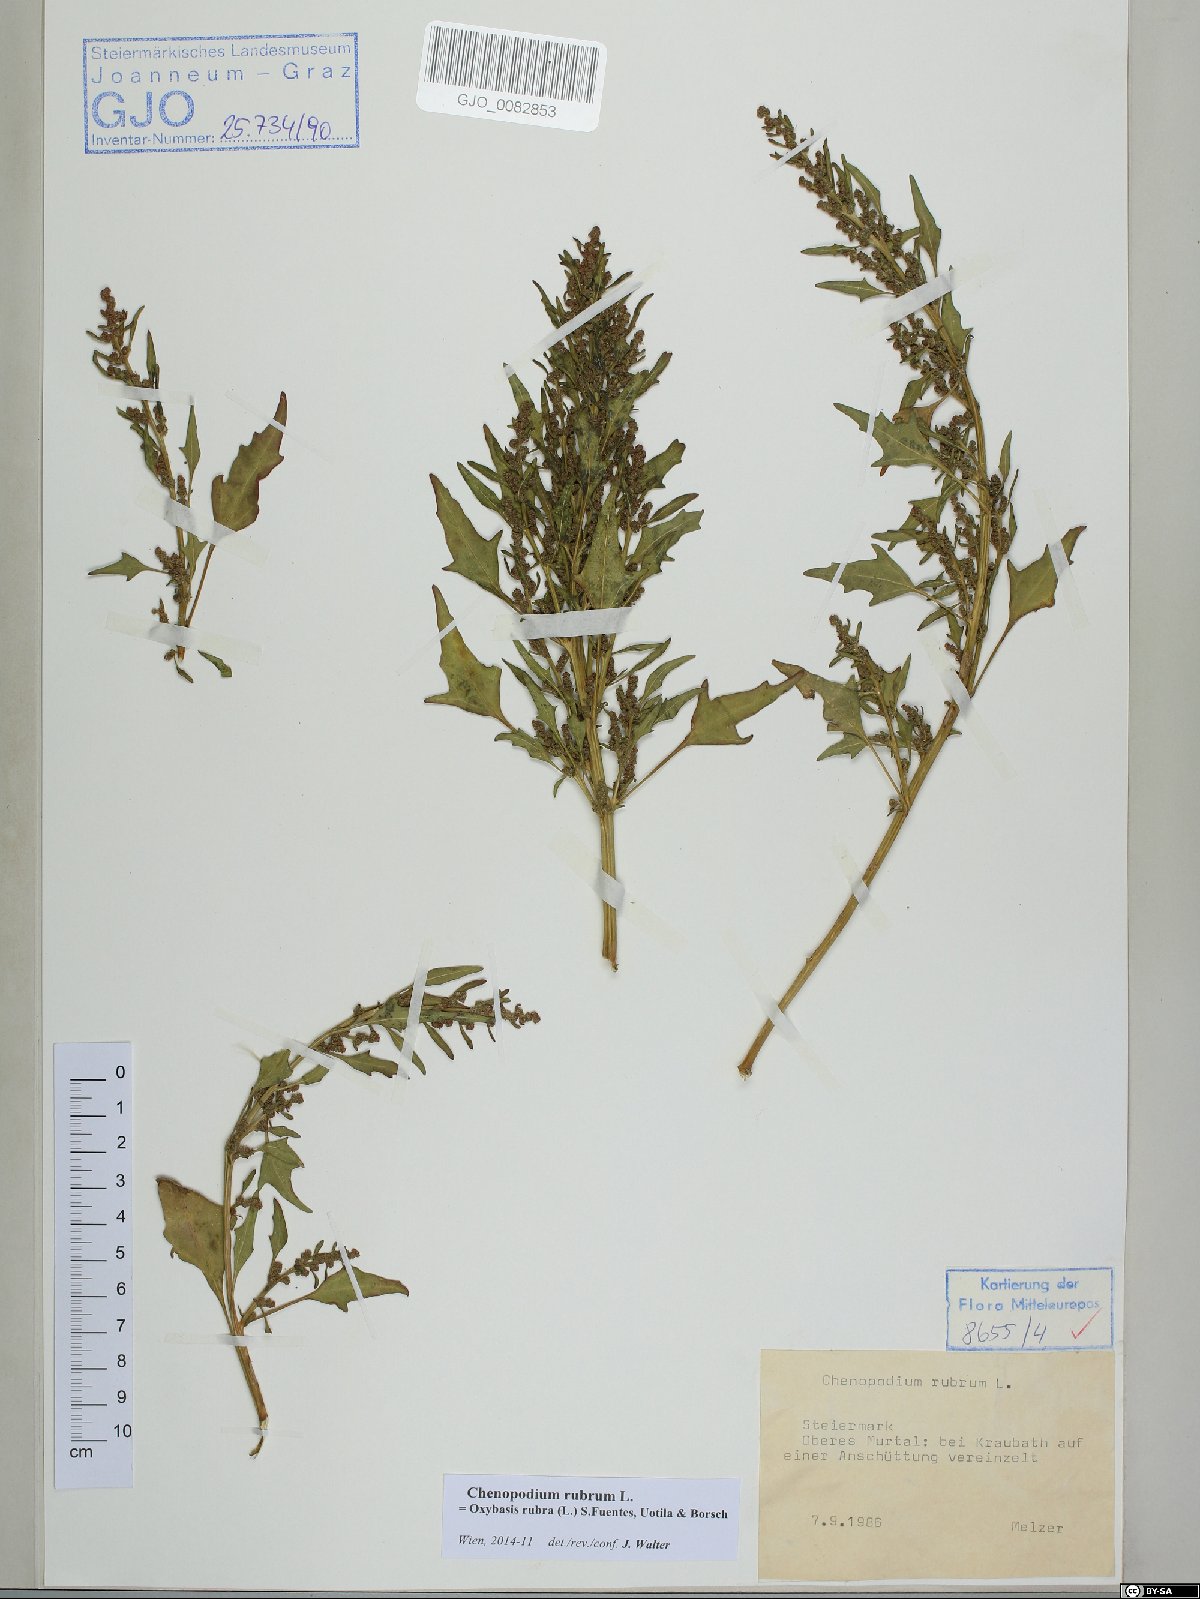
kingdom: Plantae
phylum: Tracheophyta
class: Magnoliopsida
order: Caryophyllales
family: Amaranthaceae
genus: Oxybasis
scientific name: Oxybasis rubra
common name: Red goosefoot
